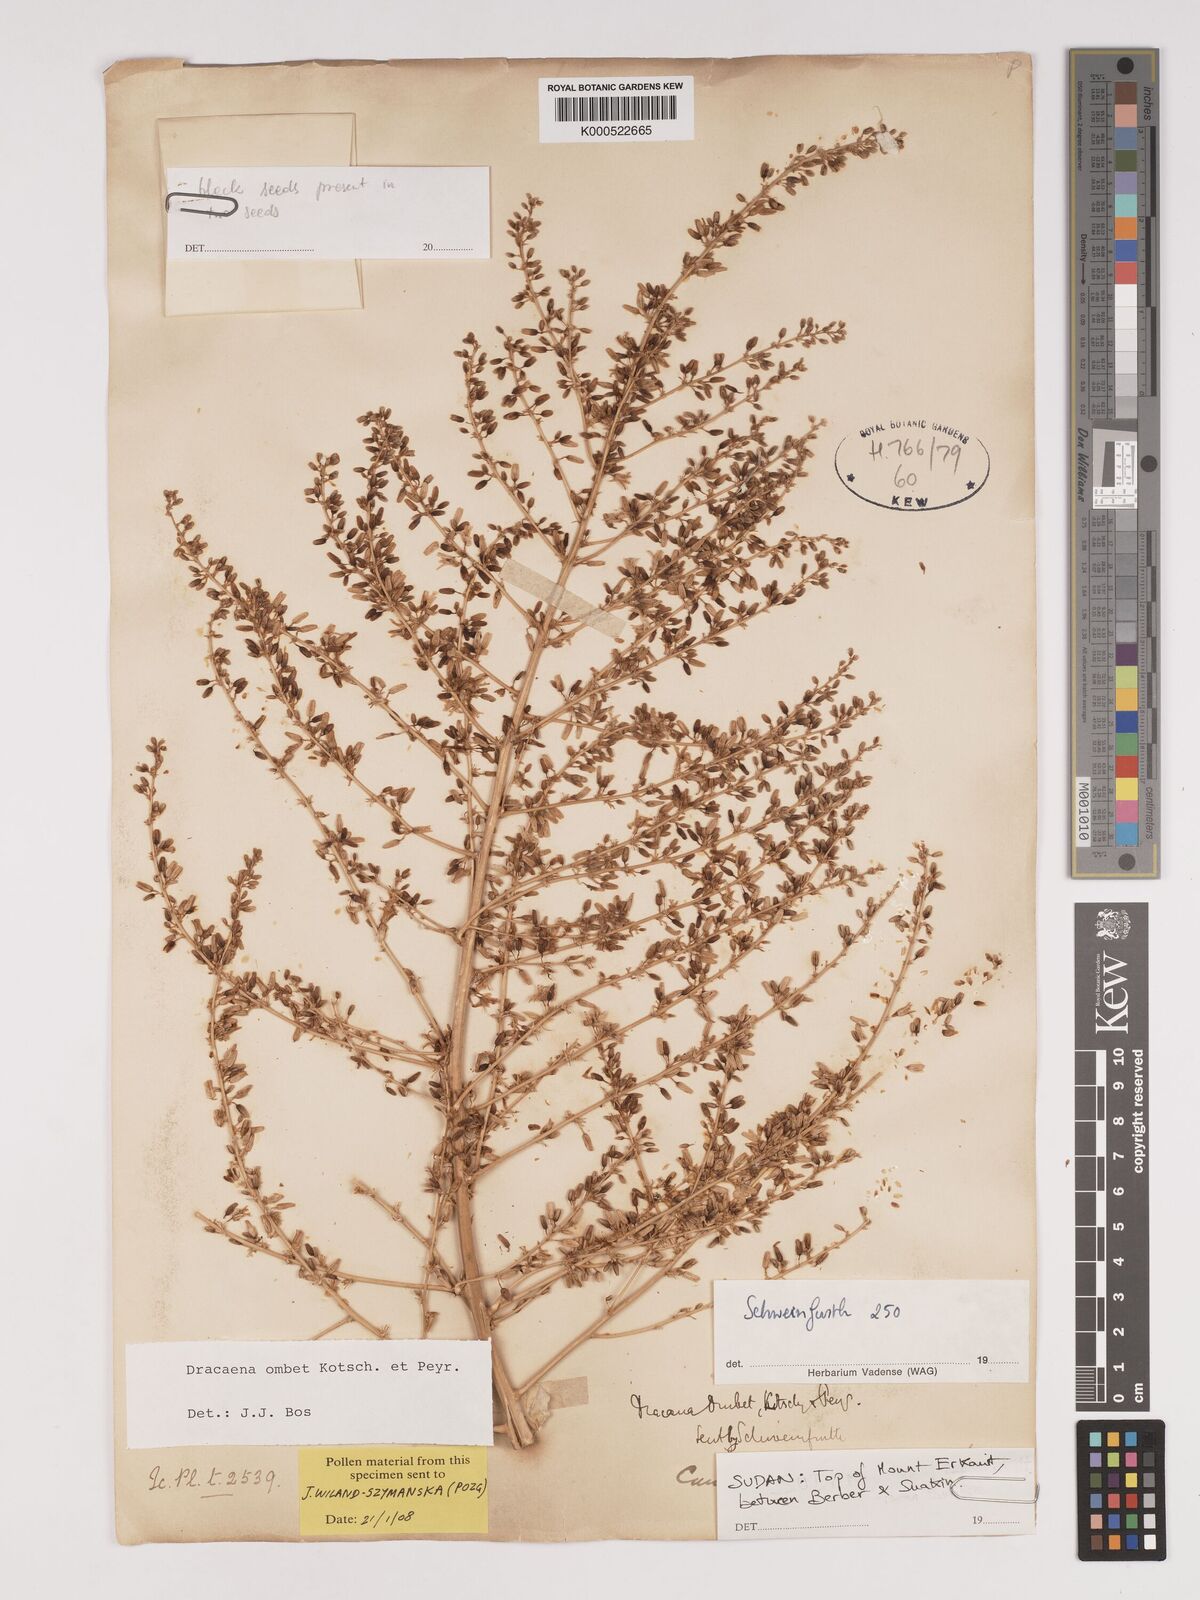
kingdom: Plantae
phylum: Tracheophyta
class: Liliopsida
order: Asparagales
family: Asparagaceae
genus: Dracaena
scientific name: Dracaena ombet
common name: Gabal elba dragon tree
